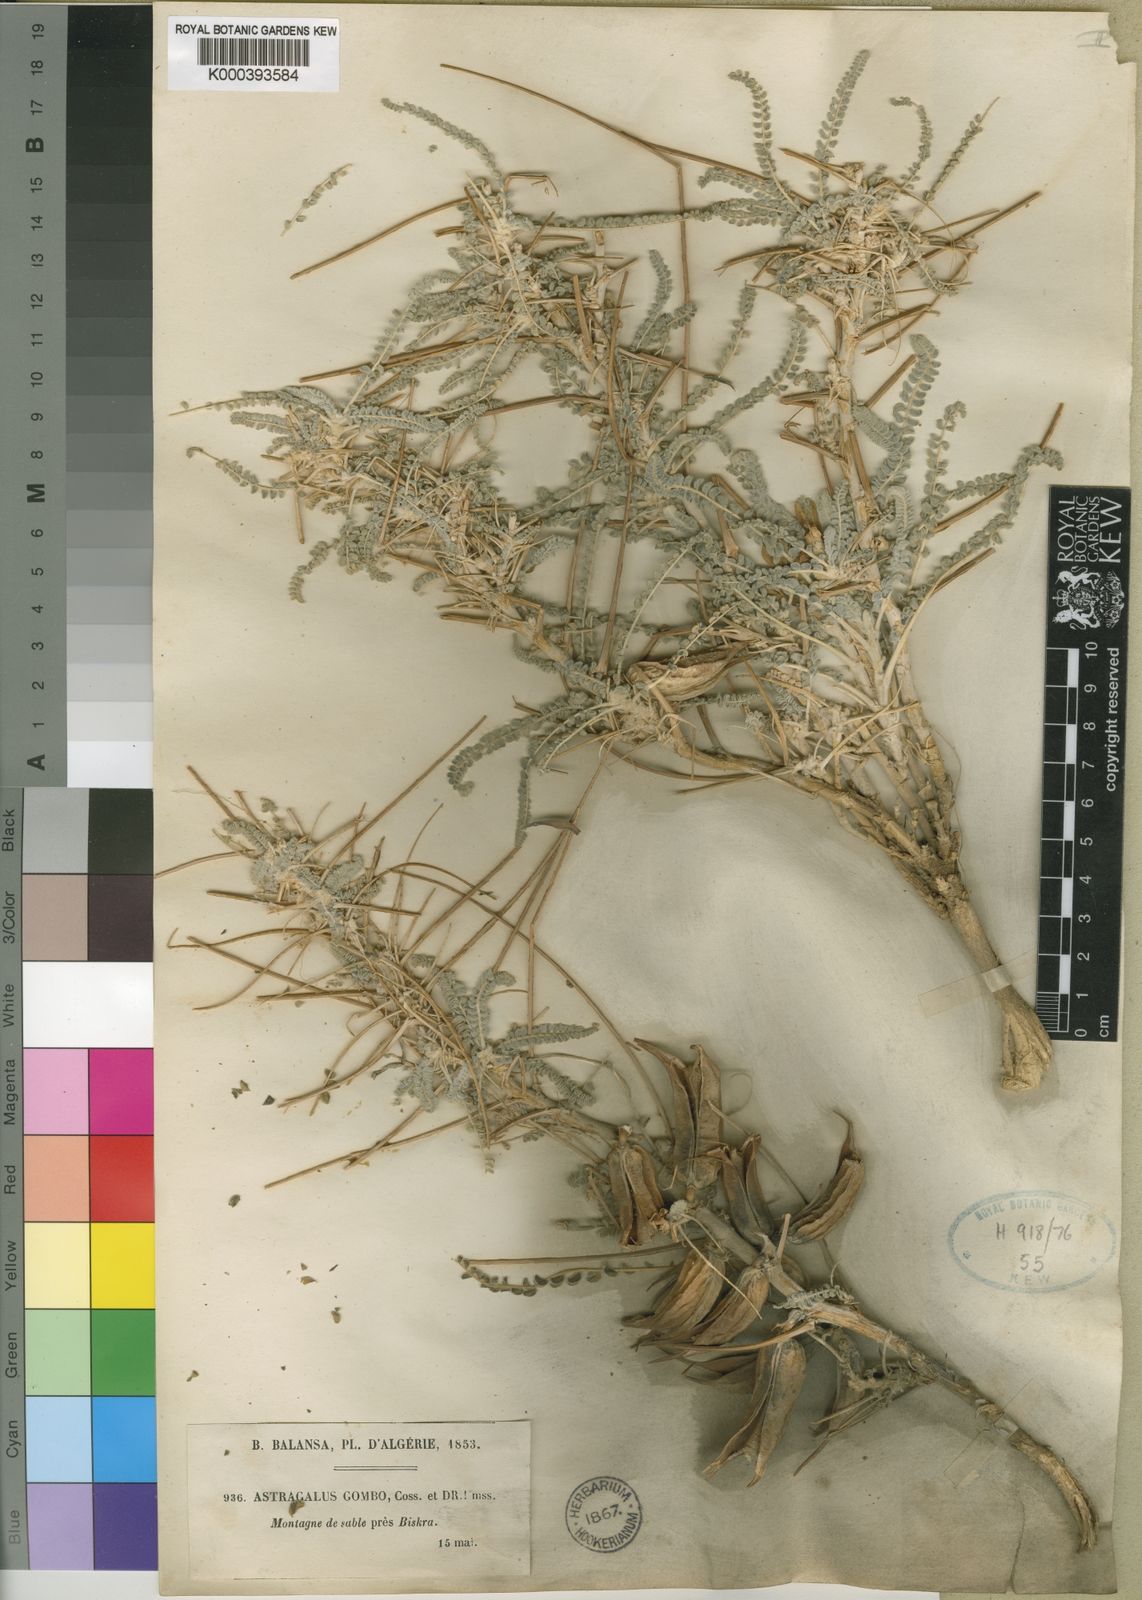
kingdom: Plantae
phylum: Tracheophyta
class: Magnoliopsida
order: Fabales
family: Fabaceae
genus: Astragalus
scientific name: Astragalus
